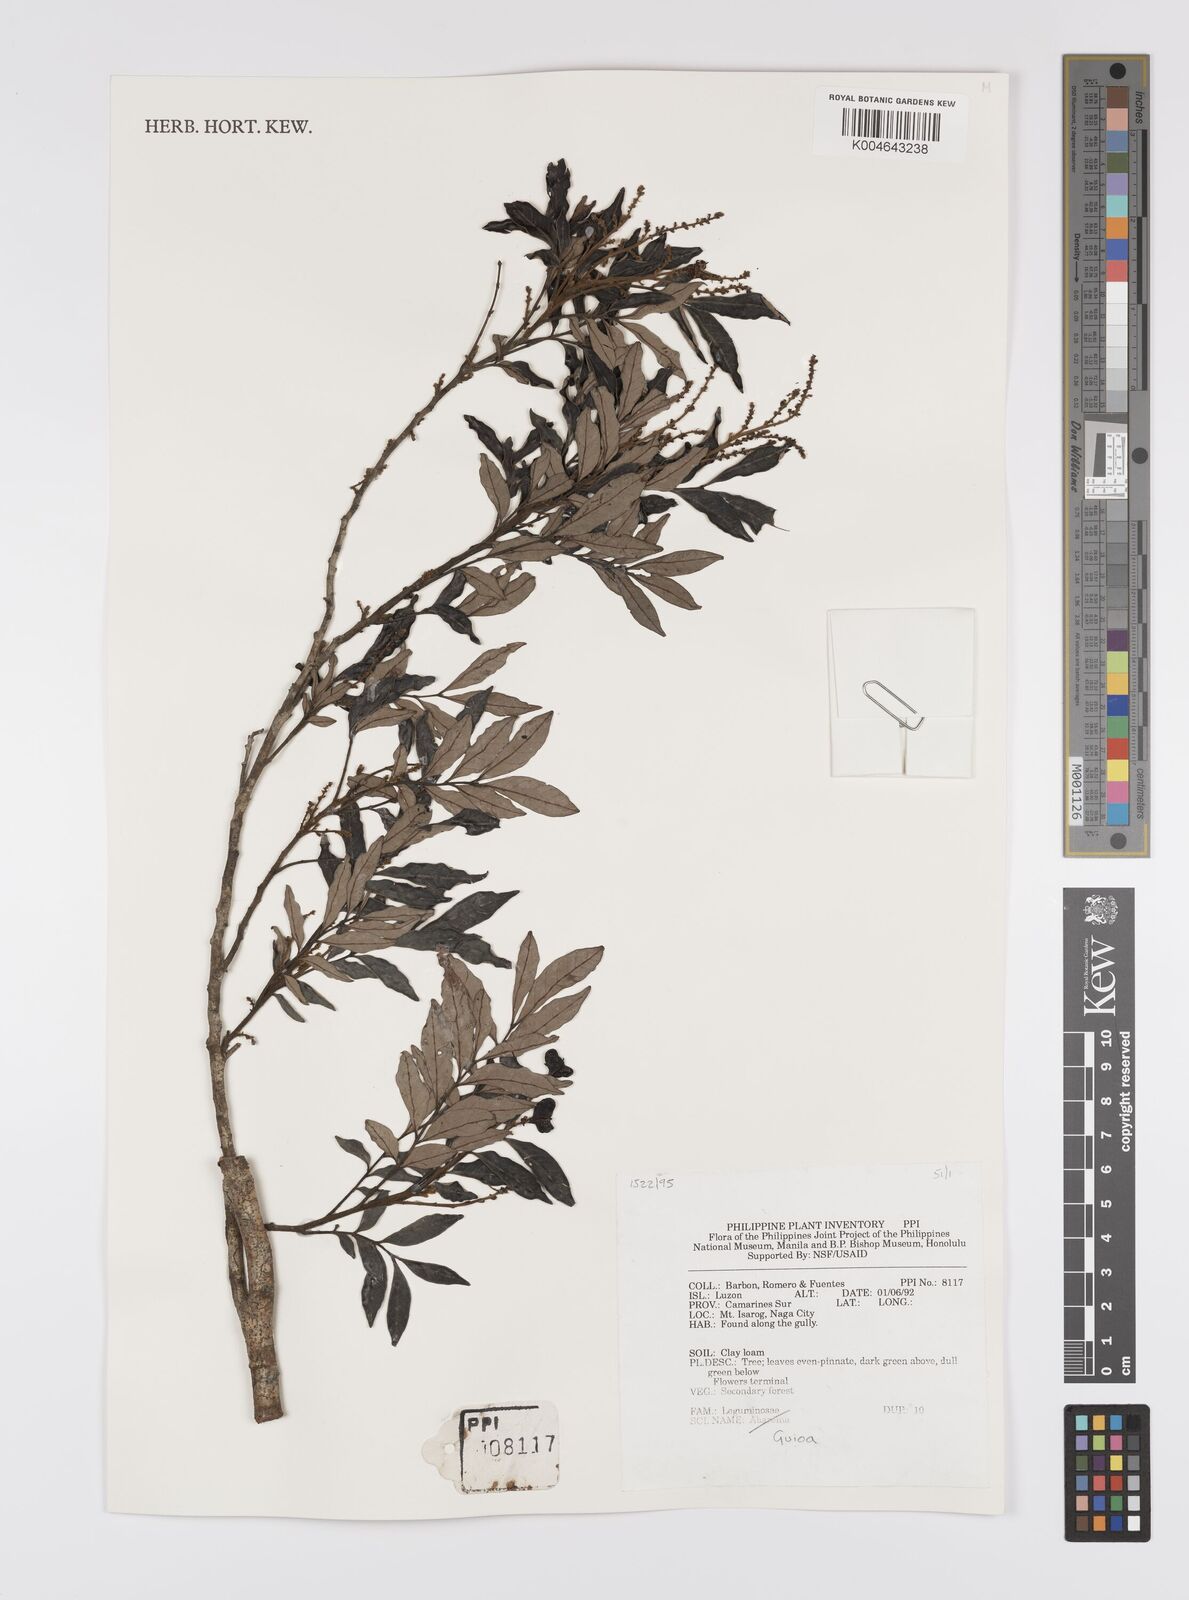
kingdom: Plantae
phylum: Tracheophyta
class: Magnoliopsida
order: Sapindales
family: Sapindaceae
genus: Guioa
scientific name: Guioa
